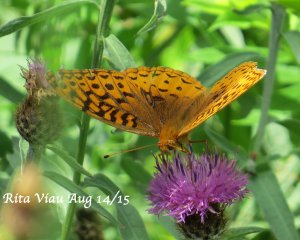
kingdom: Animalia
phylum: Arthropoda
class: Insecta
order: Lepidoptera
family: Nymphalidae
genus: Speyeria
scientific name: Speyeria cybele
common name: Great Spangled Fritillary
